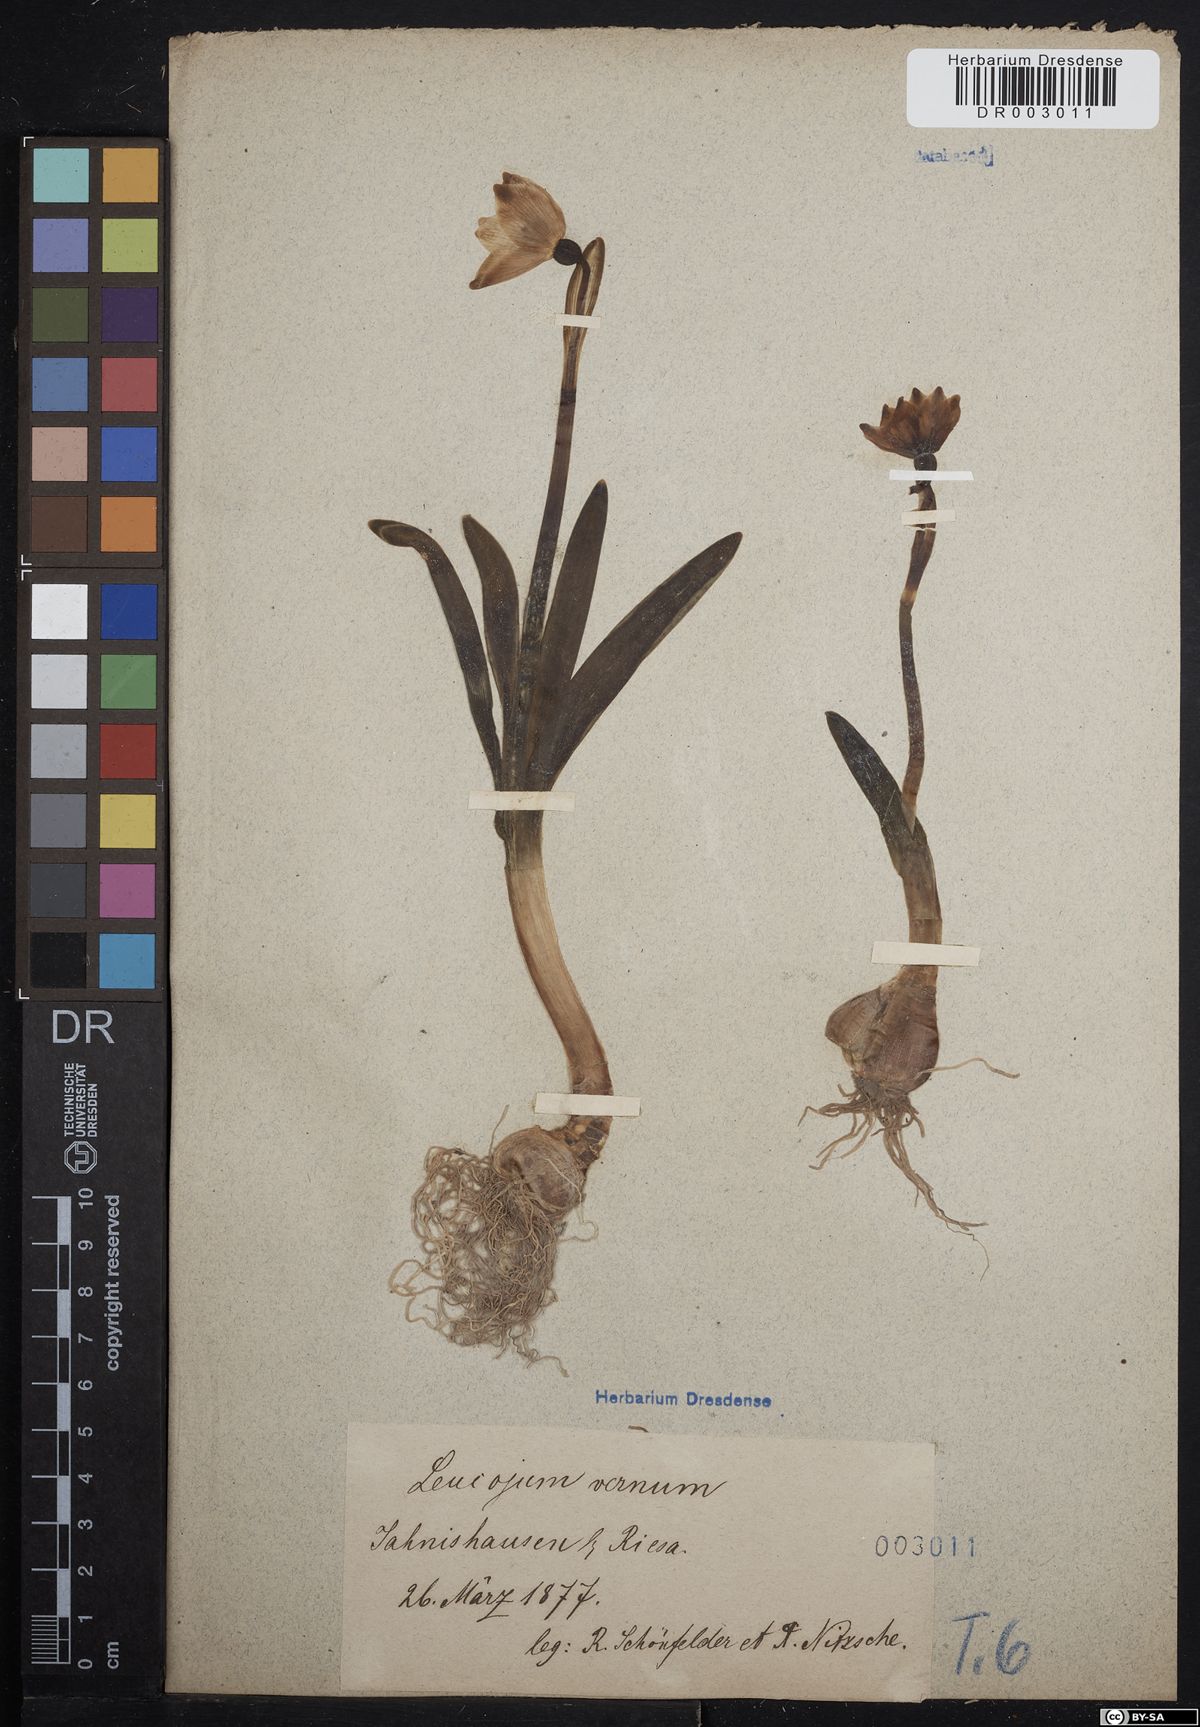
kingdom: Plantae
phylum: Tracheophyta
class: Liliopsida
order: Asparagales
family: Amaryllidaceae
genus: Leucojum
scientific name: Leucojum vernum
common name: Spring snowflake
